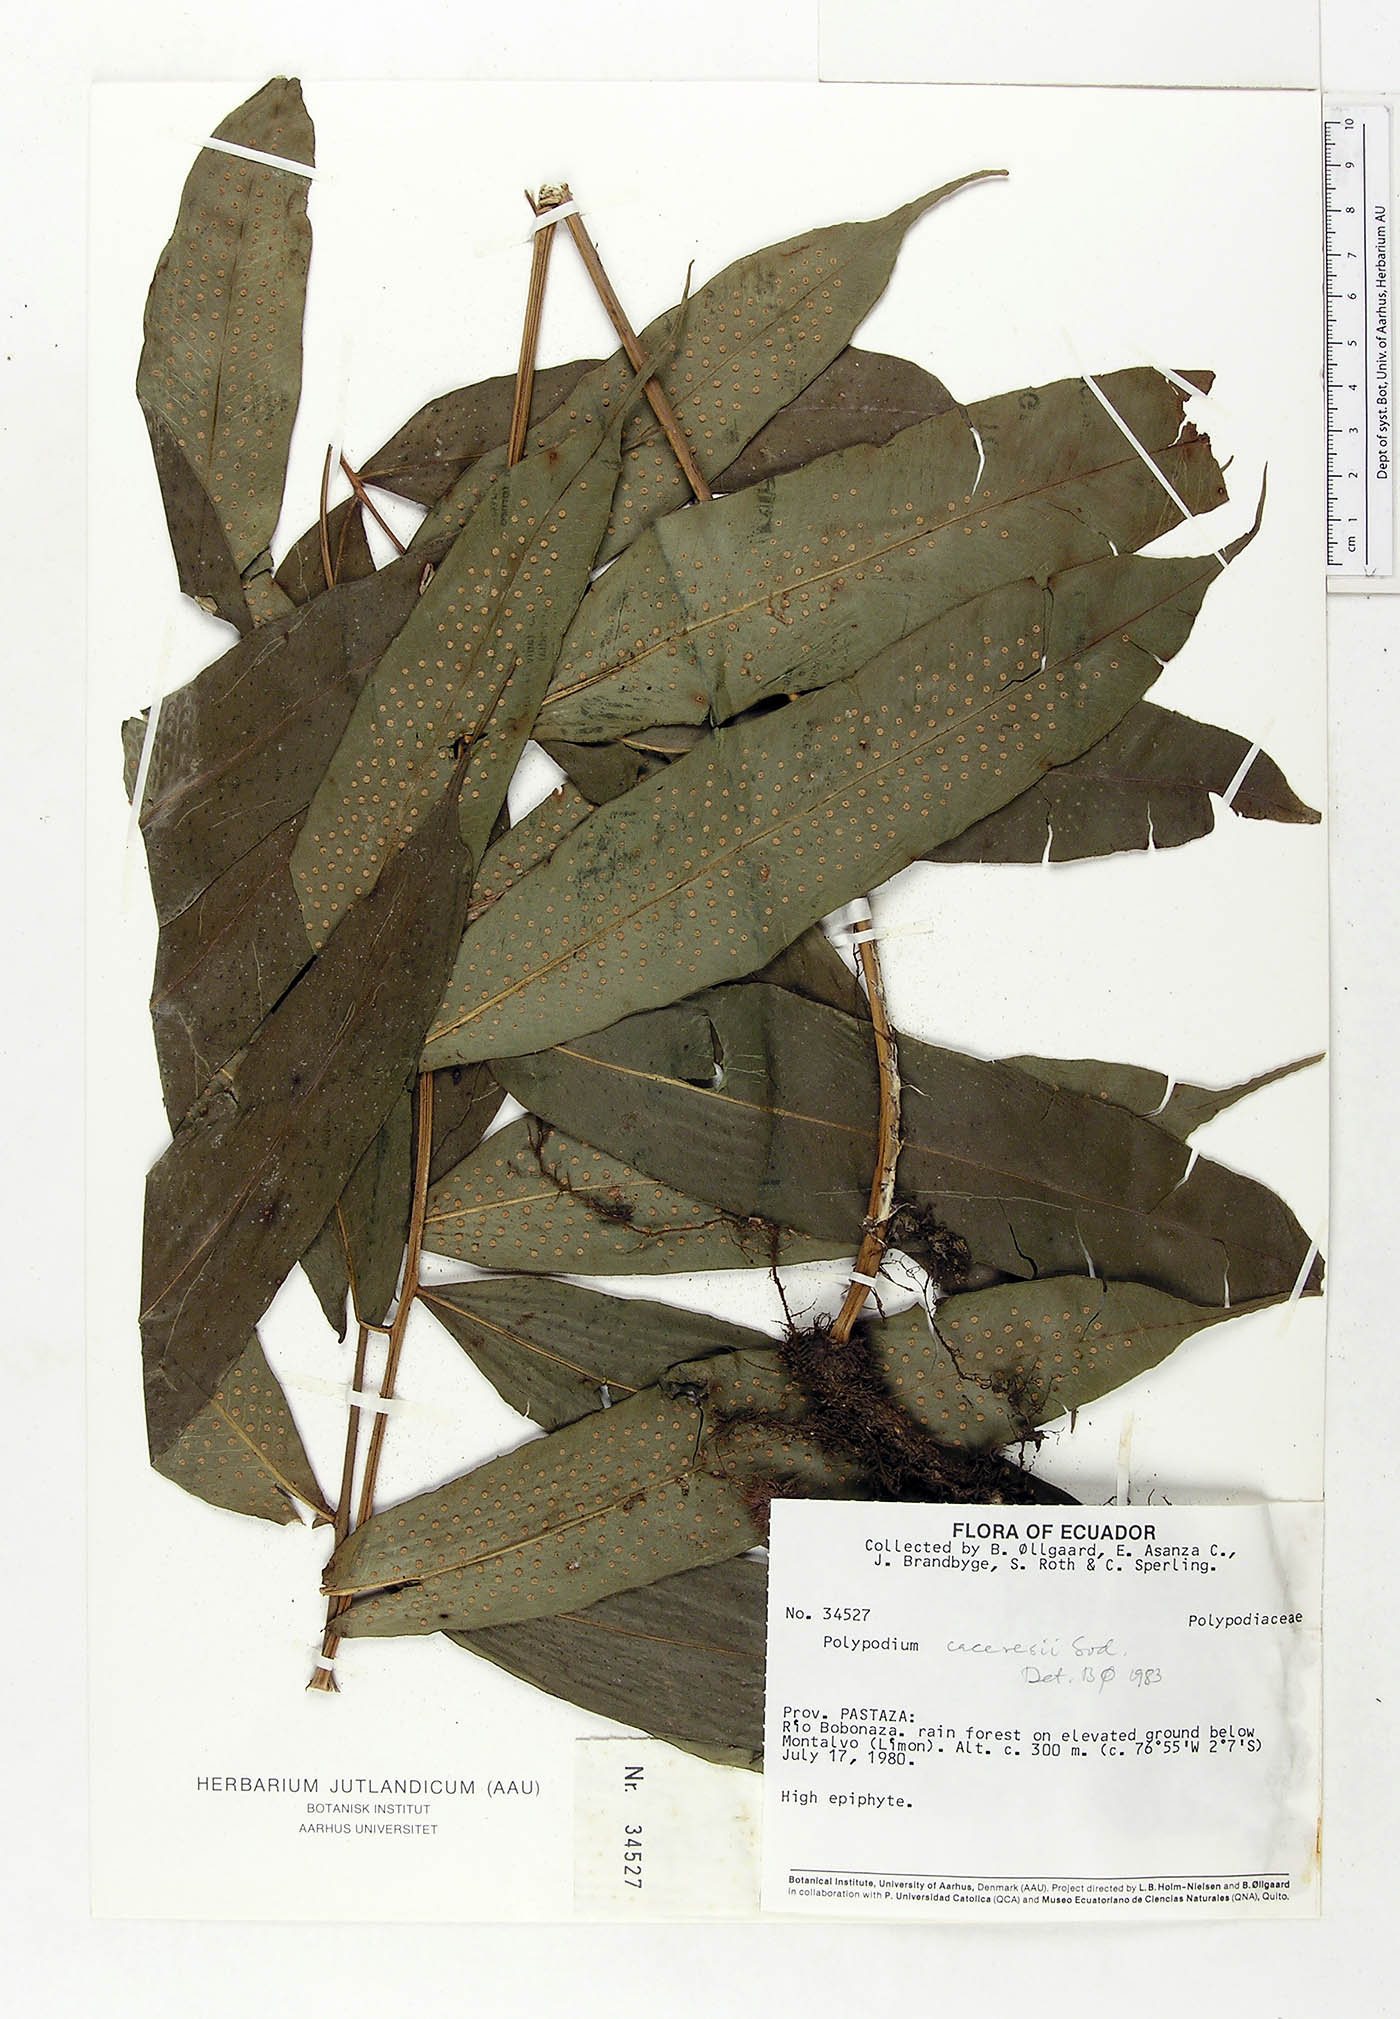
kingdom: Plantae
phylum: Tracheophyta
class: Polypodiopsida
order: Polypodiales
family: Polypodiaceae
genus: Serpocaulon
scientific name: Serpocaulon articulatum
